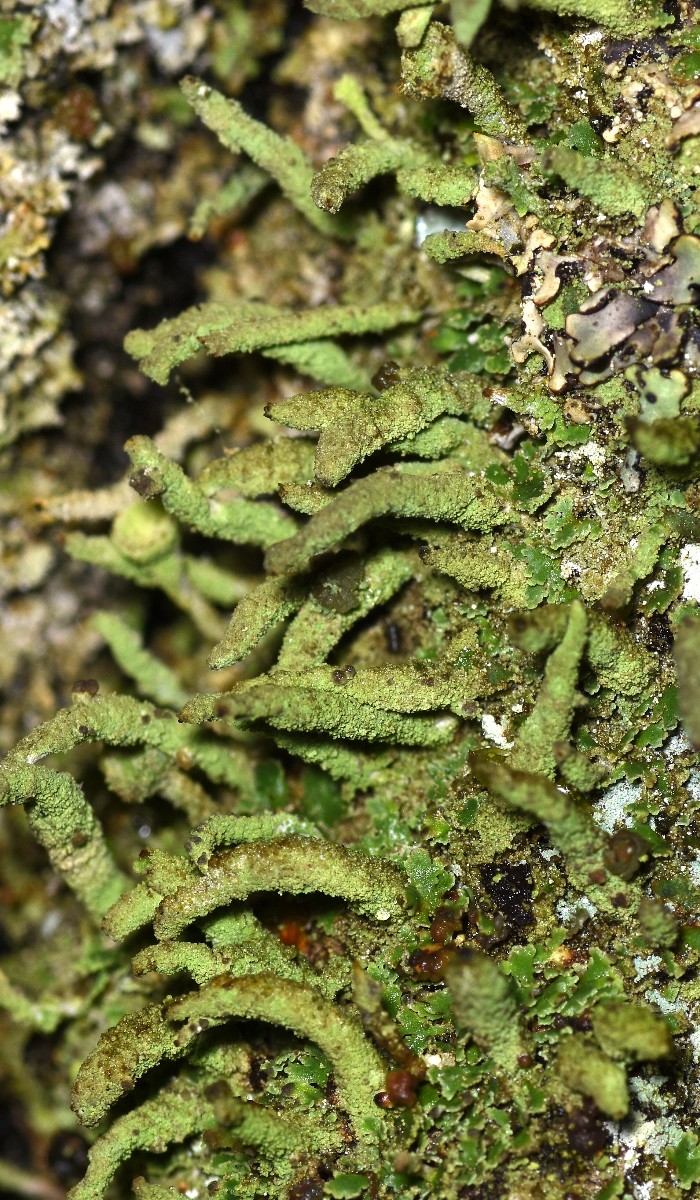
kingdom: Fungi
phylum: Ascomycota
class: Lecanoromycetes
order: Lecanorales
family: Cladoniaceae
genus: Cladonia
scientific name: Cladonia coniocraea
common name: træfods-bægerlav
